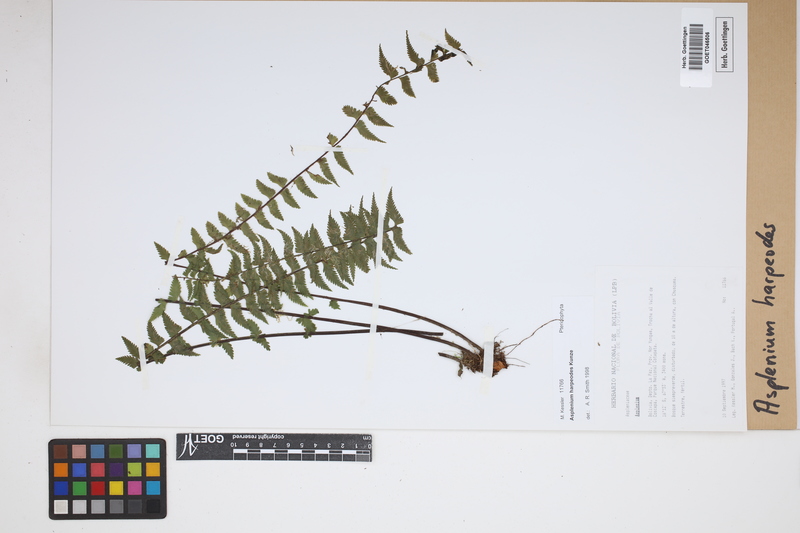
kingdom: Plantae
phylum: Tracheophyta
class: Polypodiopsida
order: Polypodiales
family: Aspleniaceae
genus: Asplenium
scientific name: Asplenium harpeodes
